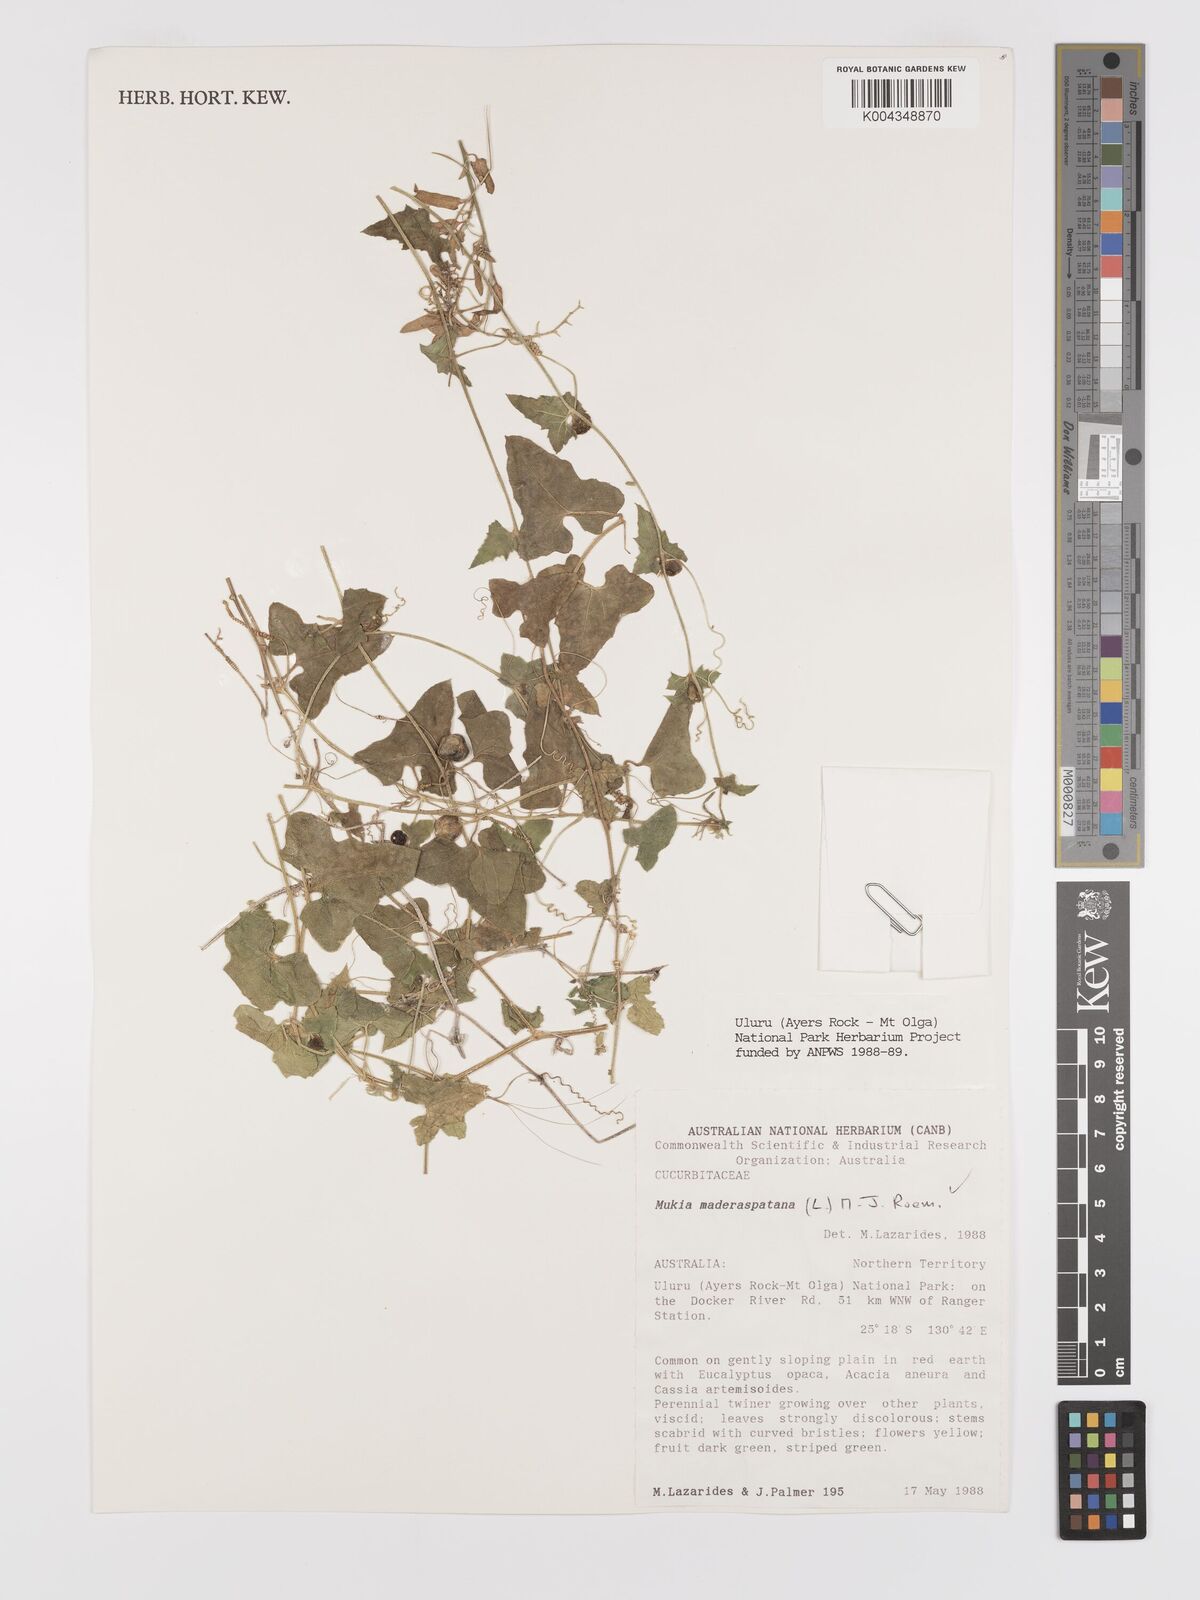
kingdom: Plantae
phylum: Tracheophyta
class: Magnoliopsida
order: Cucurbitales
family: Cucurbitaceae
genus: Cucumis
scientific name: Cucumis maderaspatanus
